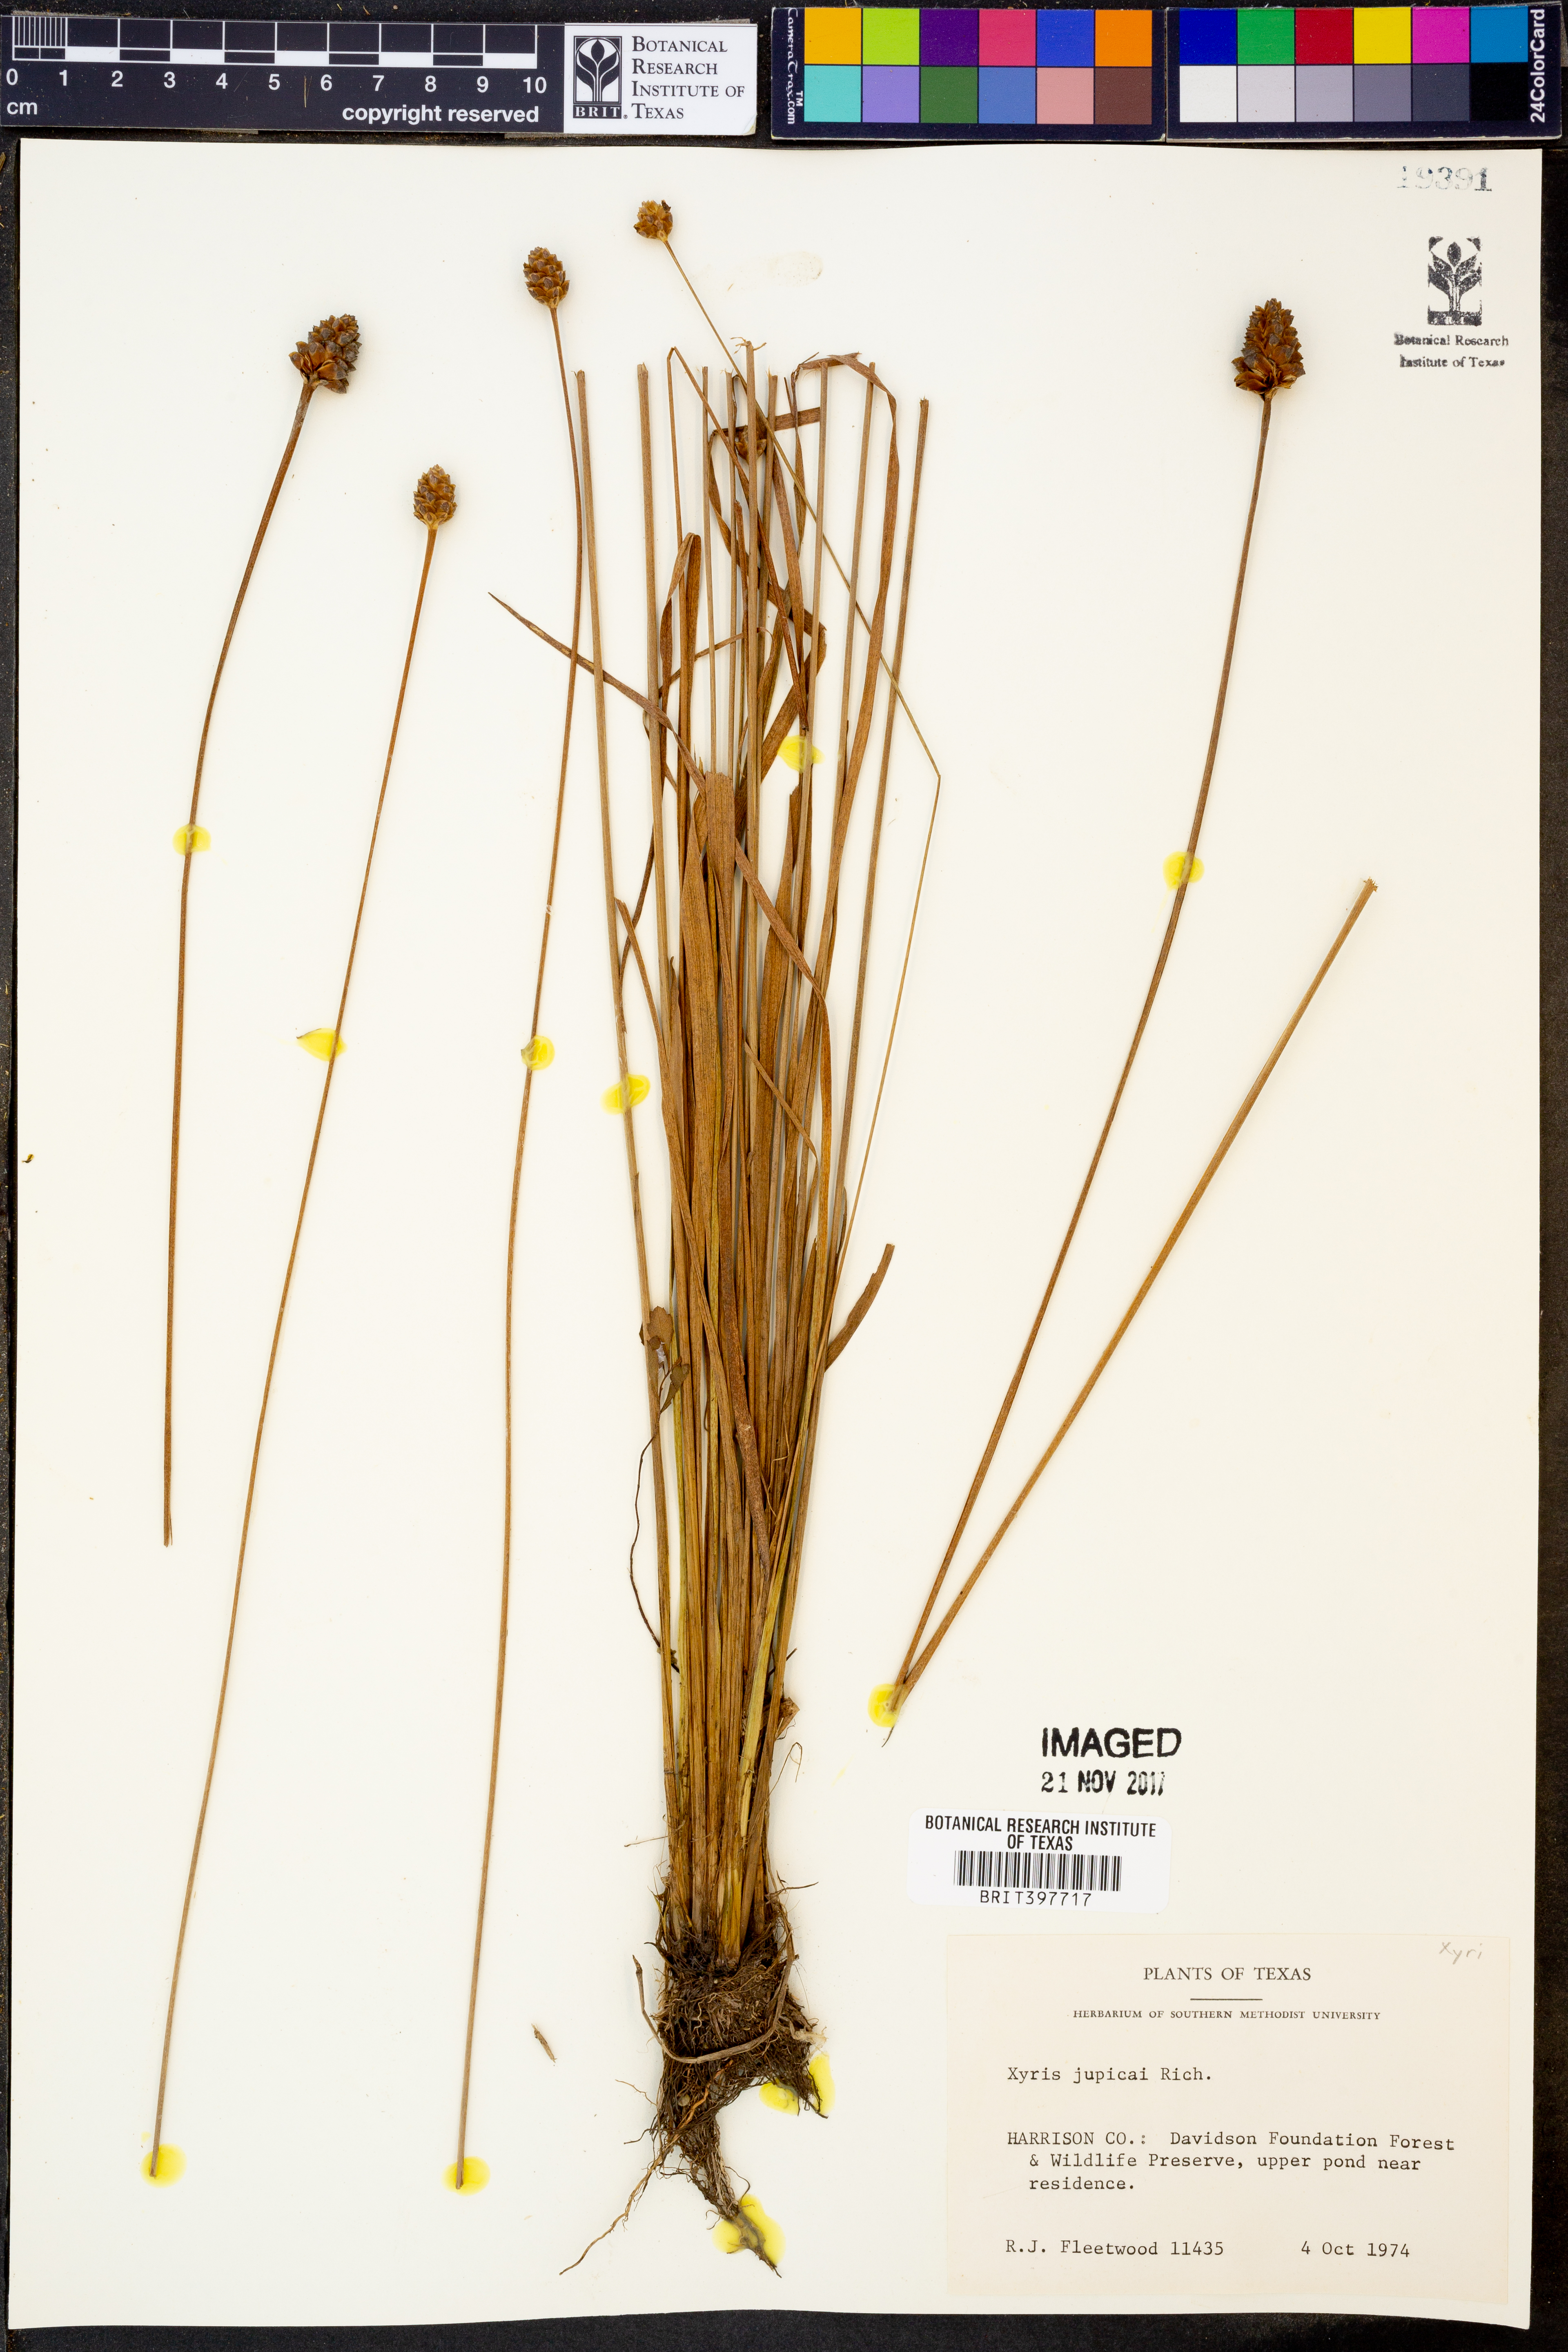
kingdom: Plantae
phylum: Tracheophyta
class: Liliopsida
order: Poales
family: Xyridaceae
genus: Xyris
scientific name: Xyris jupicai
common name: Richard's yelloweyed grass
